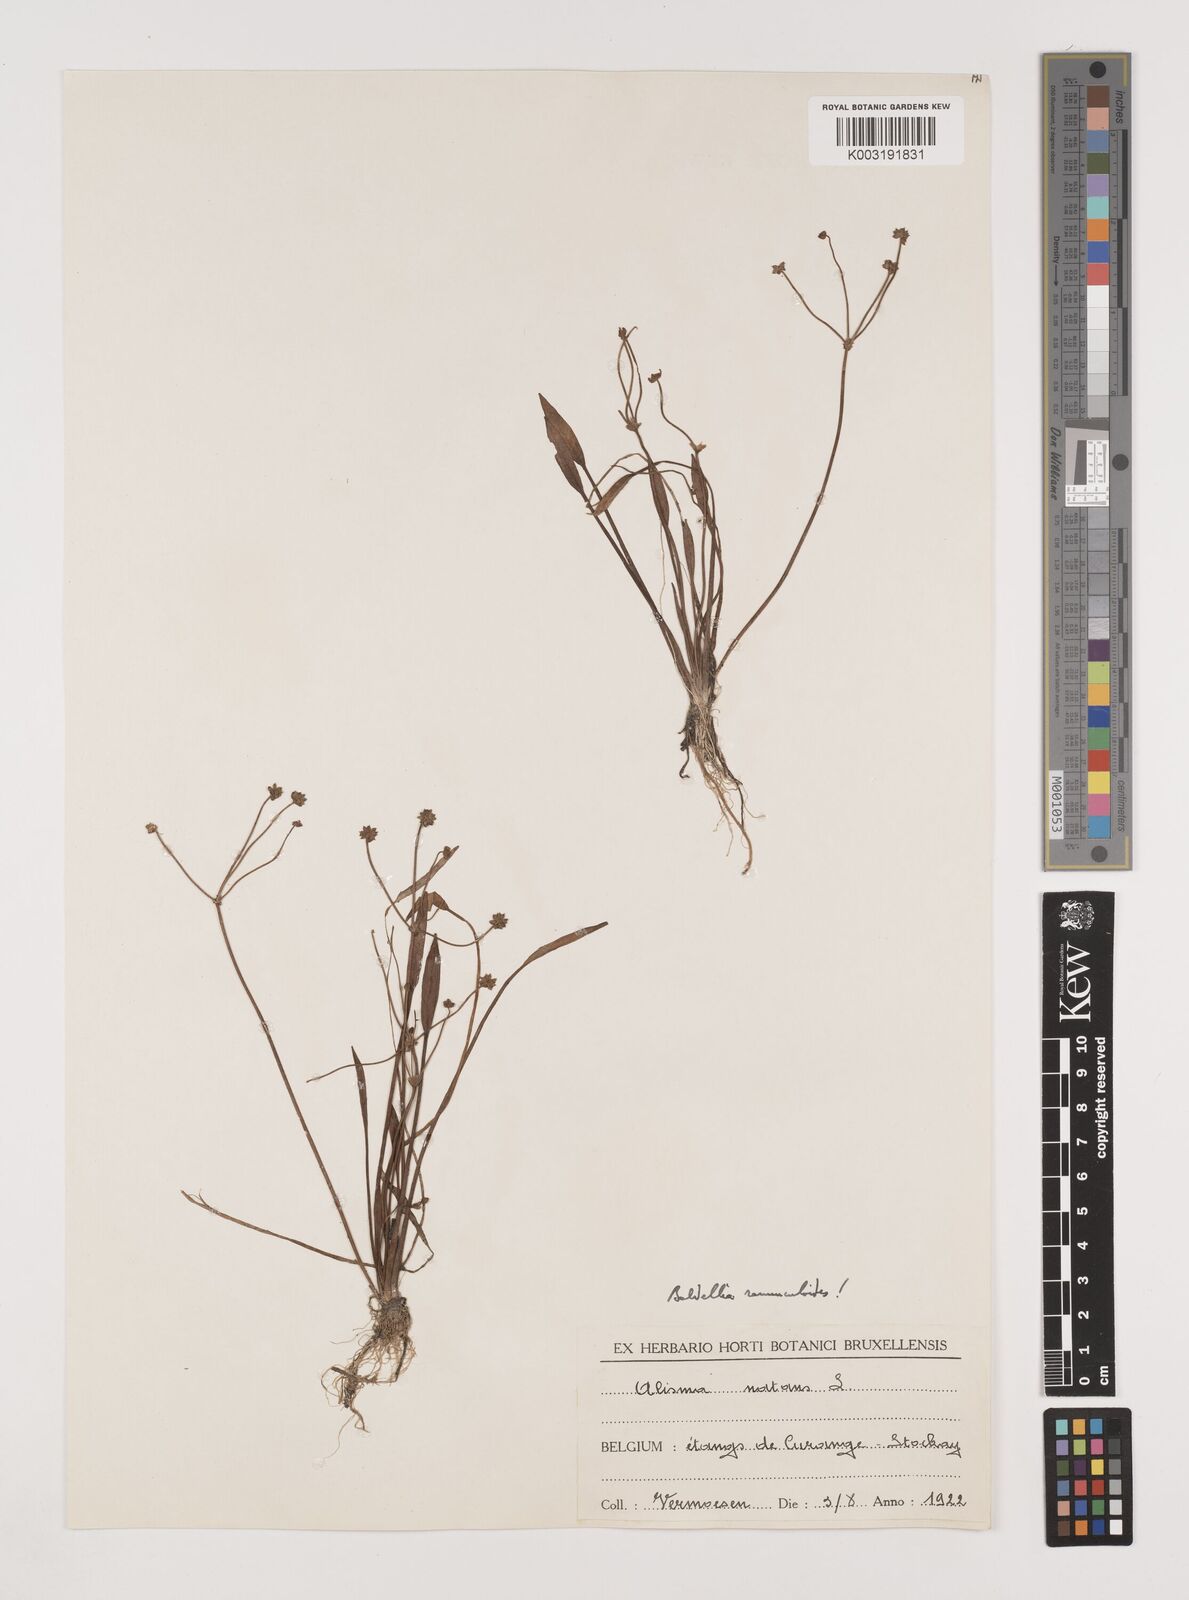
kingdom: Plantae
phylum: Tracheophyta
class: Liliopsida
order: Alismatales
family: Alismataceae
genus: Baldellia
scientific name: Baldellia ranunculoides
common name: Lesser water-plantain
